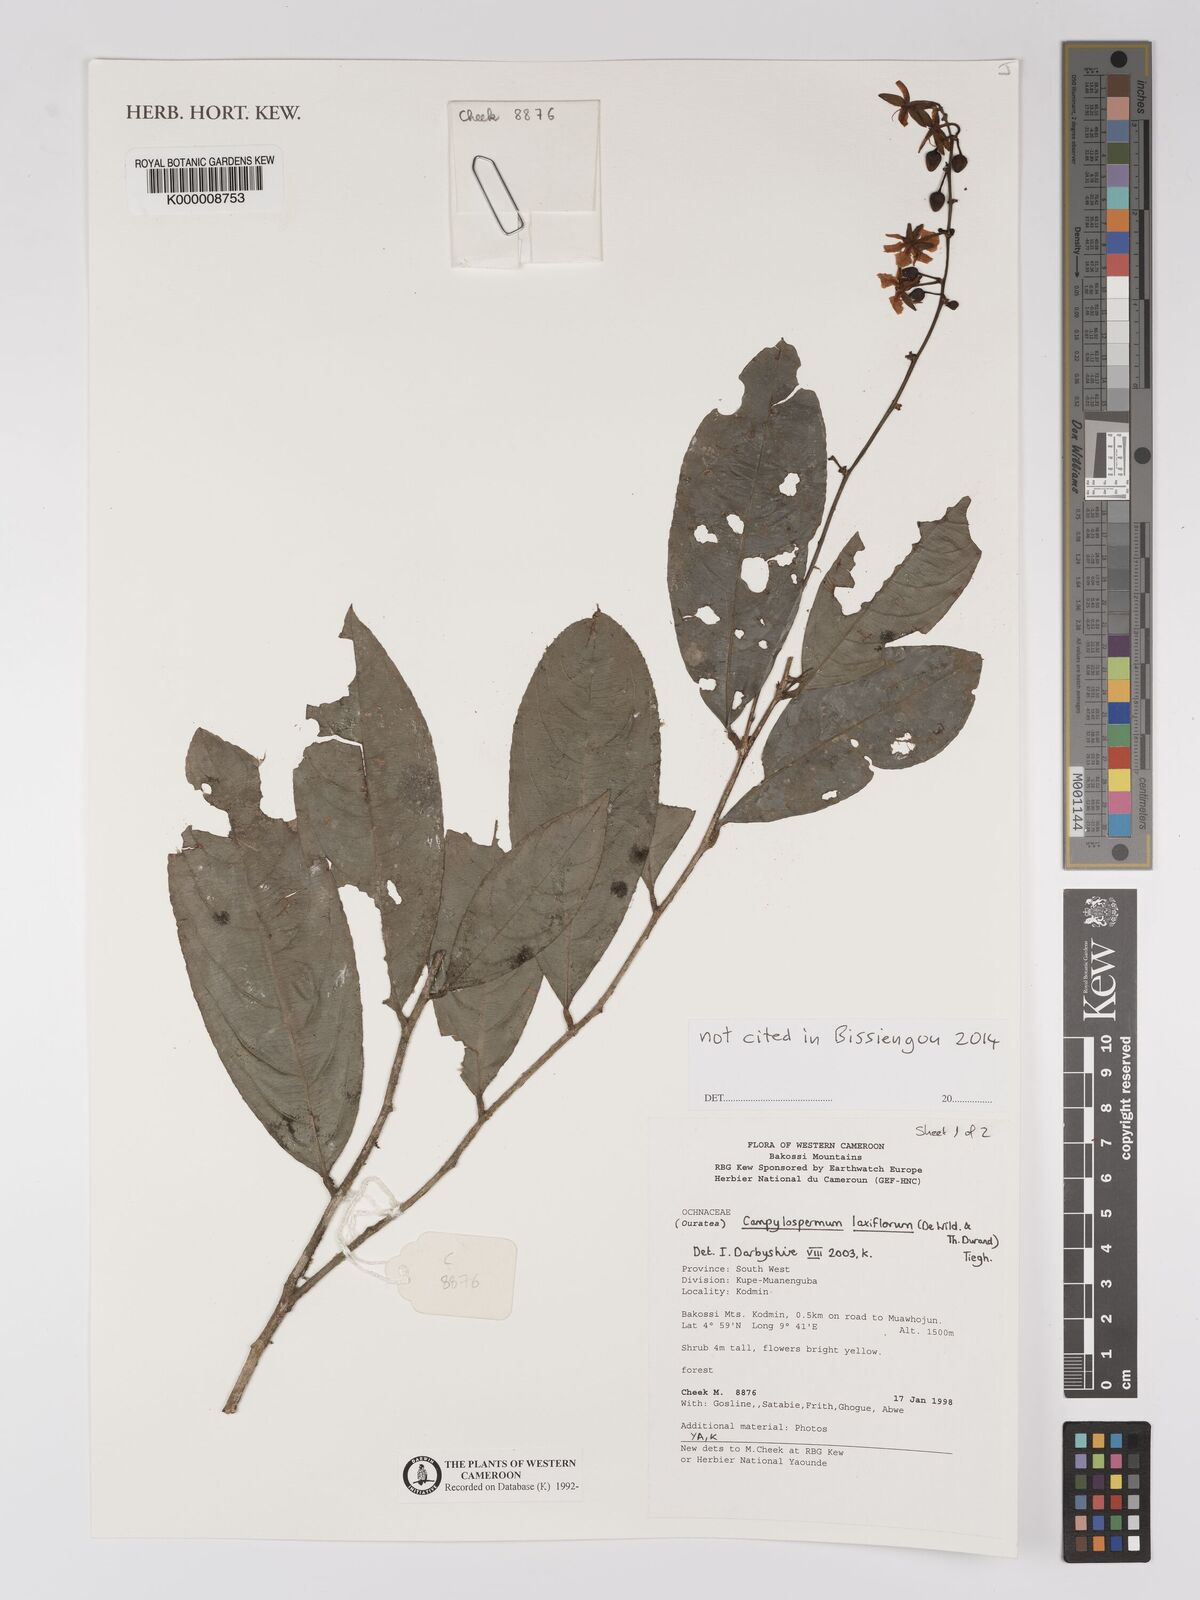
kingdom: Plantae
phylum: Tracheophyta
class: Magnoliopsida
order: Malpighiales
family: Ochnaceae
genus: Campylospermum
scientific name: Campylospermum laxiflorum
